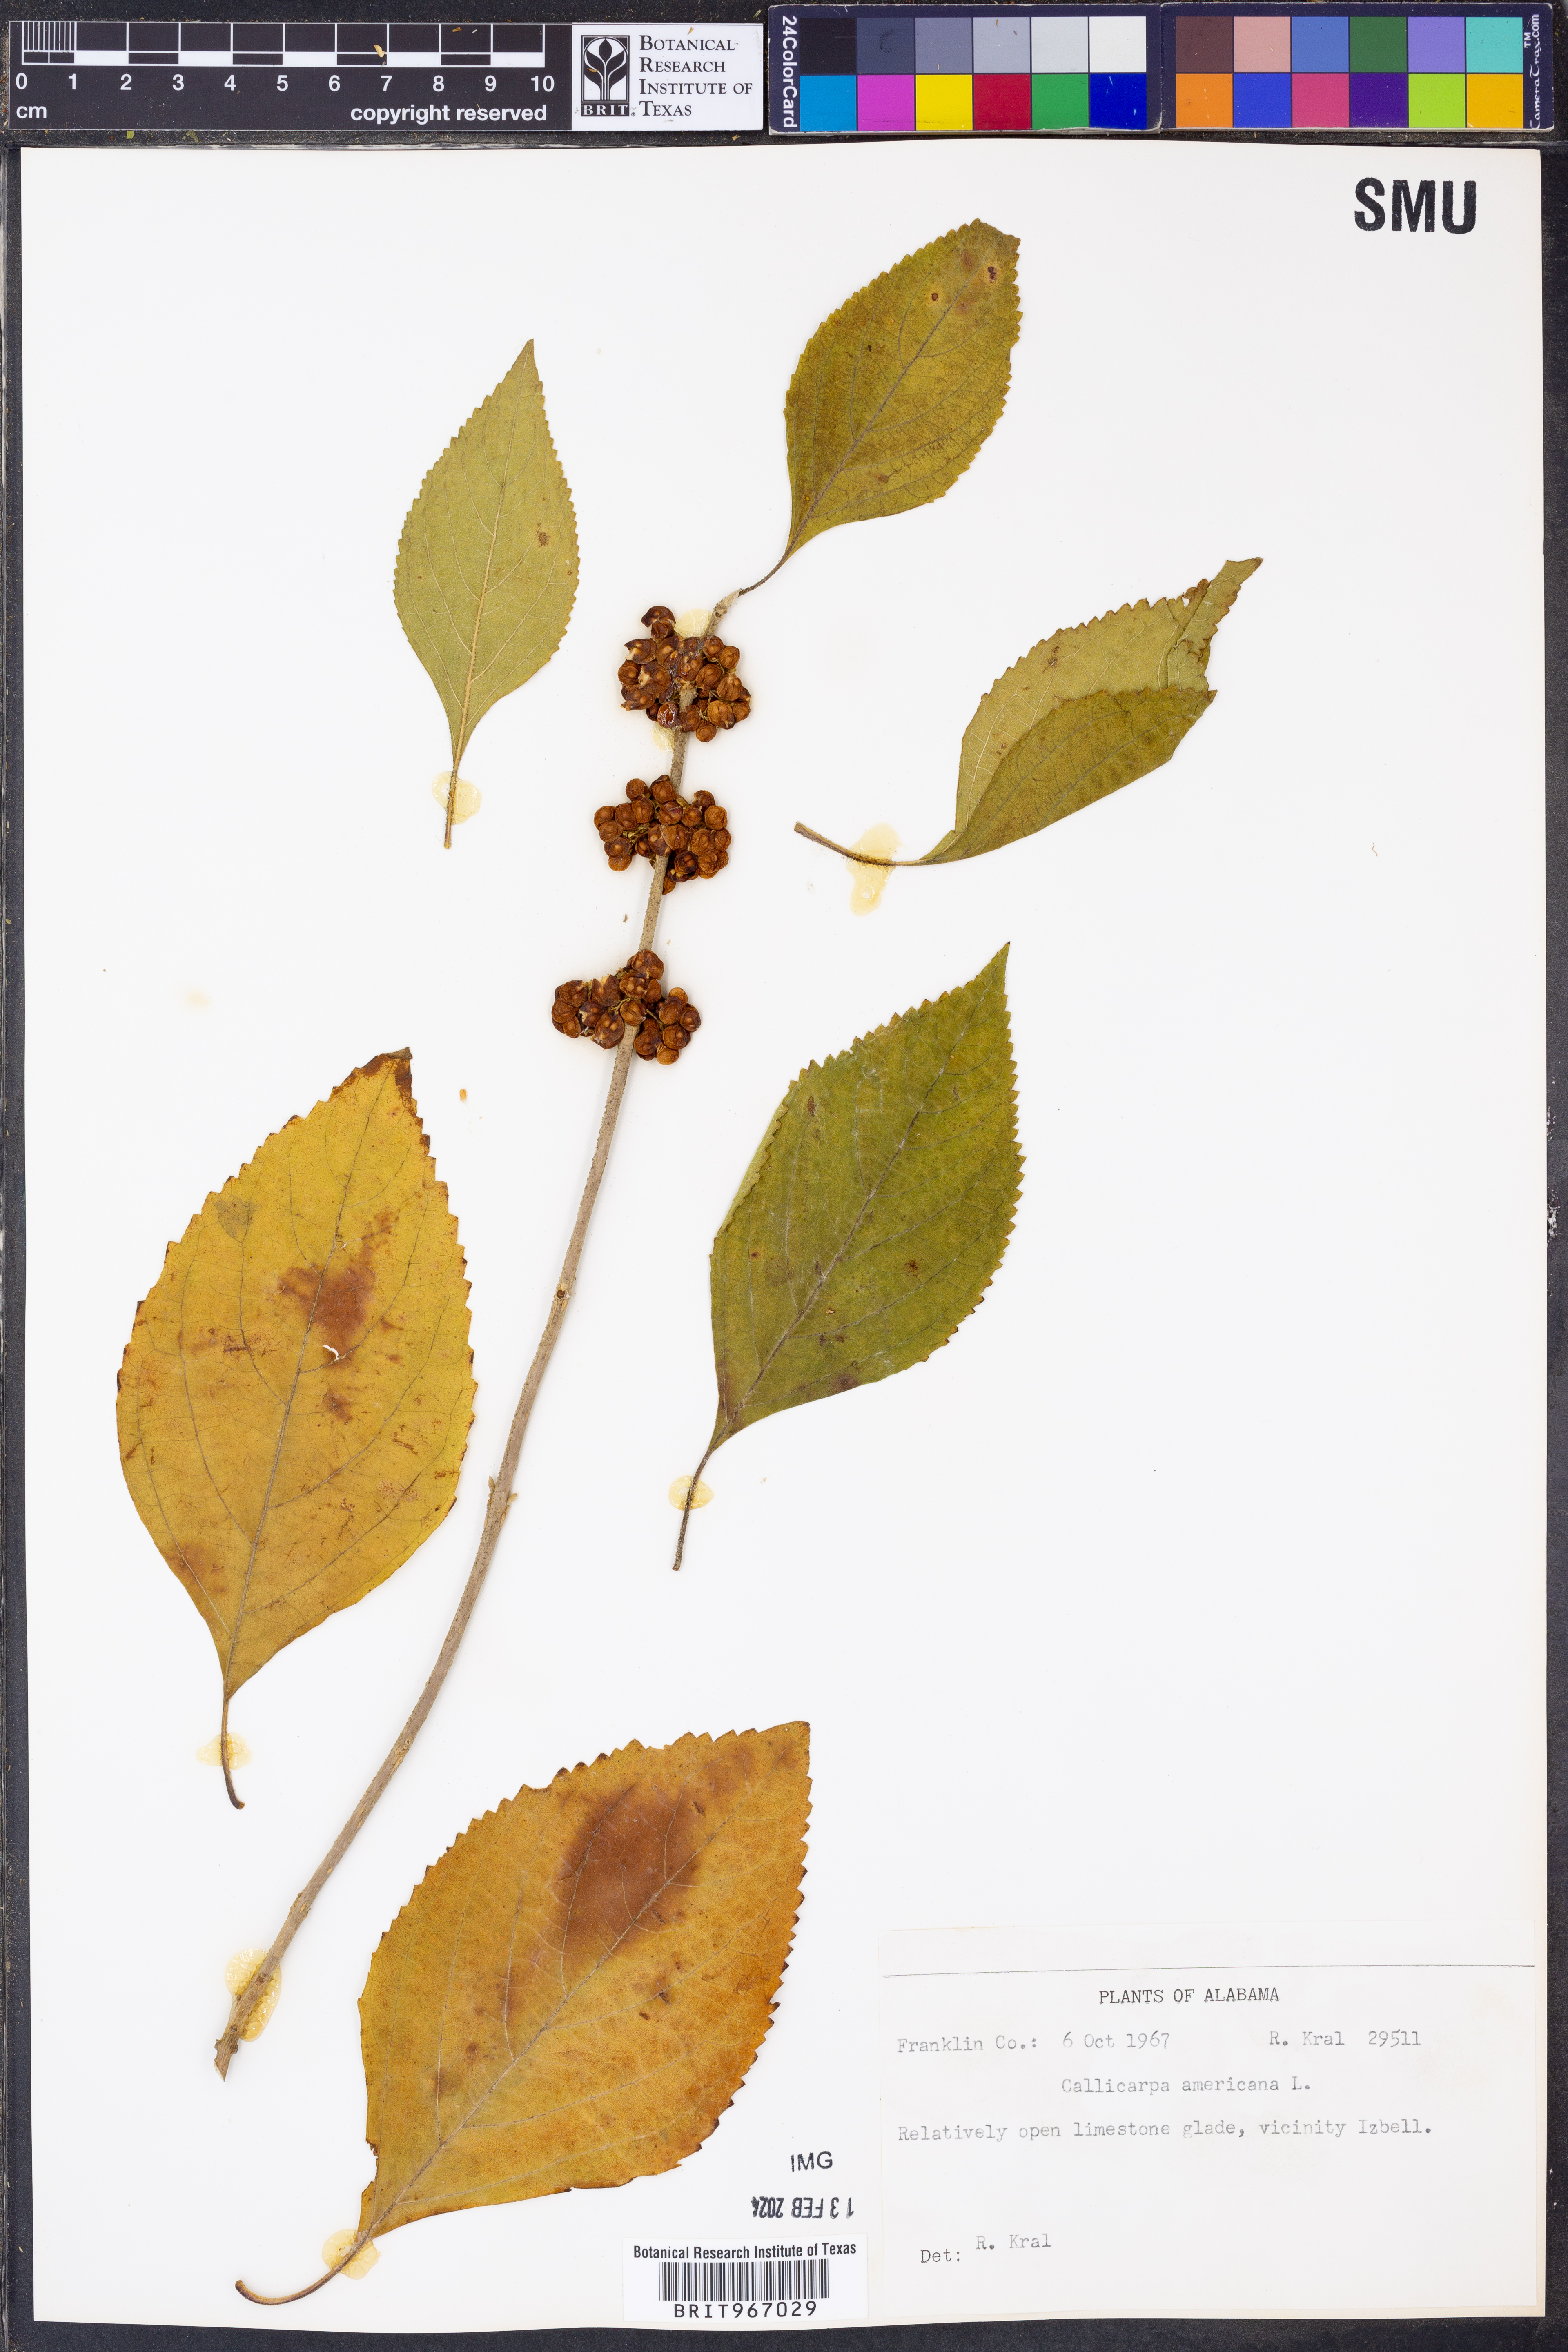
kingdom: Plantae
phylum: Tracheophyta
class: Magnoliopsida
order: Lamiales
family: Lamiaceae
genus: Callicarpa
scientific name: Callicarpa americana
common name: American beautyberry
